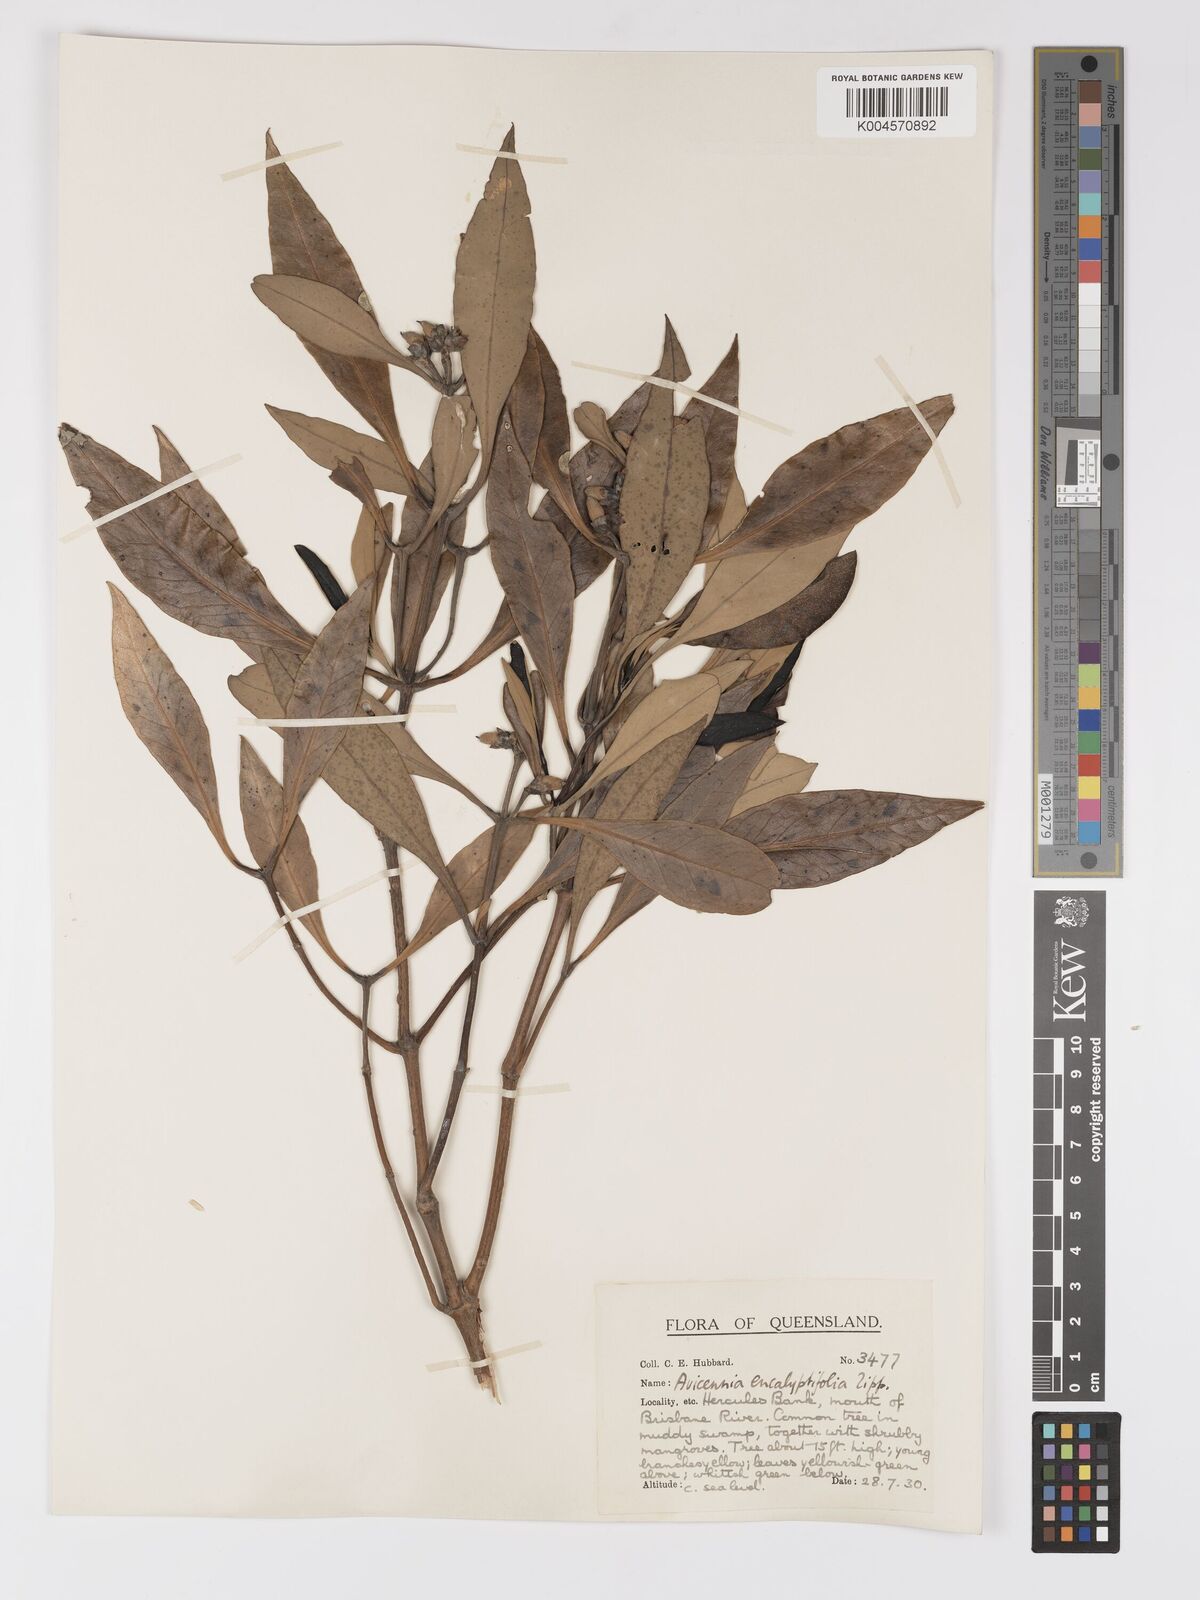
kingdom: Plantae
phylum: Tracheophyta
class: Magnoliopsida
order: Lamiales
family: Acanthaceae
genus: Avicennia
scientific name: Avicennia marina
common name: Gray mangrove
